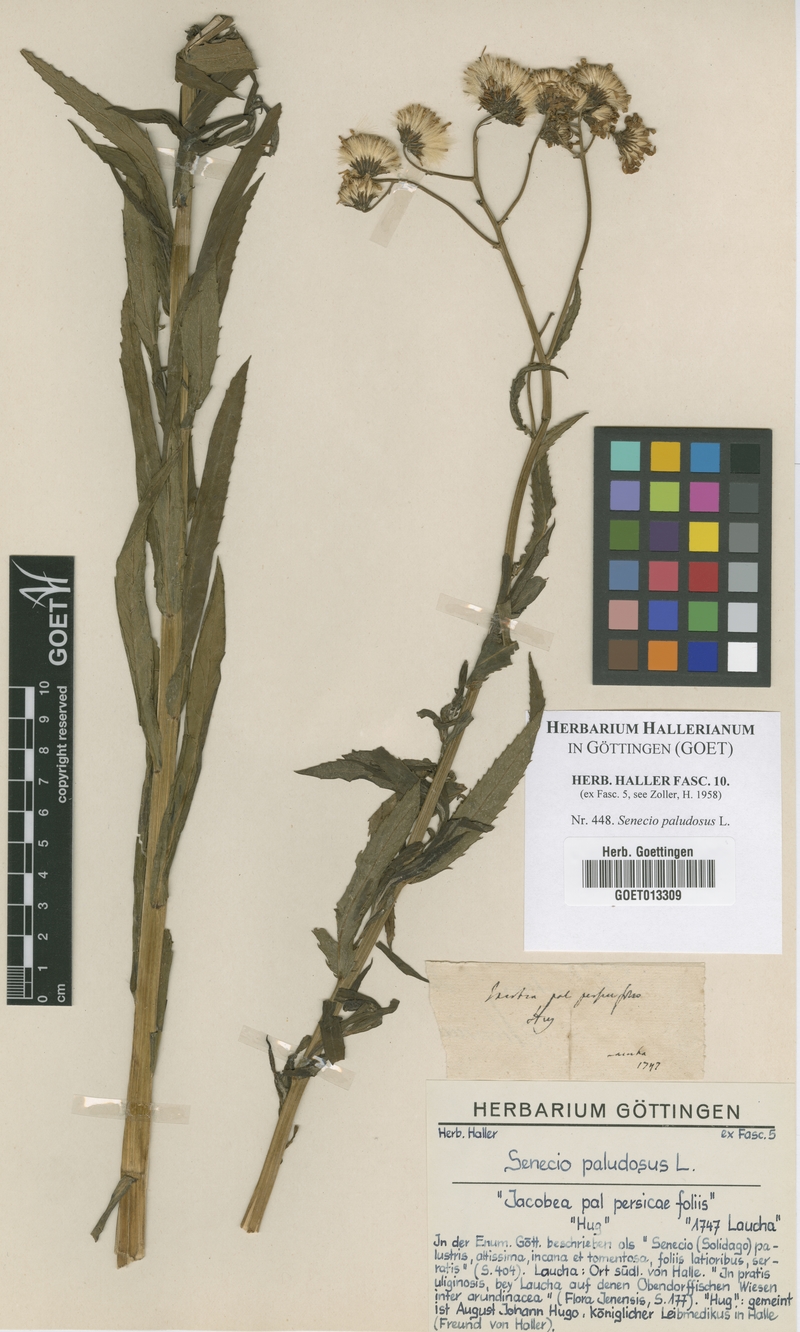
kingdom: Plantae
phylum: Tracheophyta
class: Magnoliopsida
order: Asterales
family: Asteraceae
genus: Jacobaea
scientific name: Jacobaea paludosa
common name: Fen ragwort
